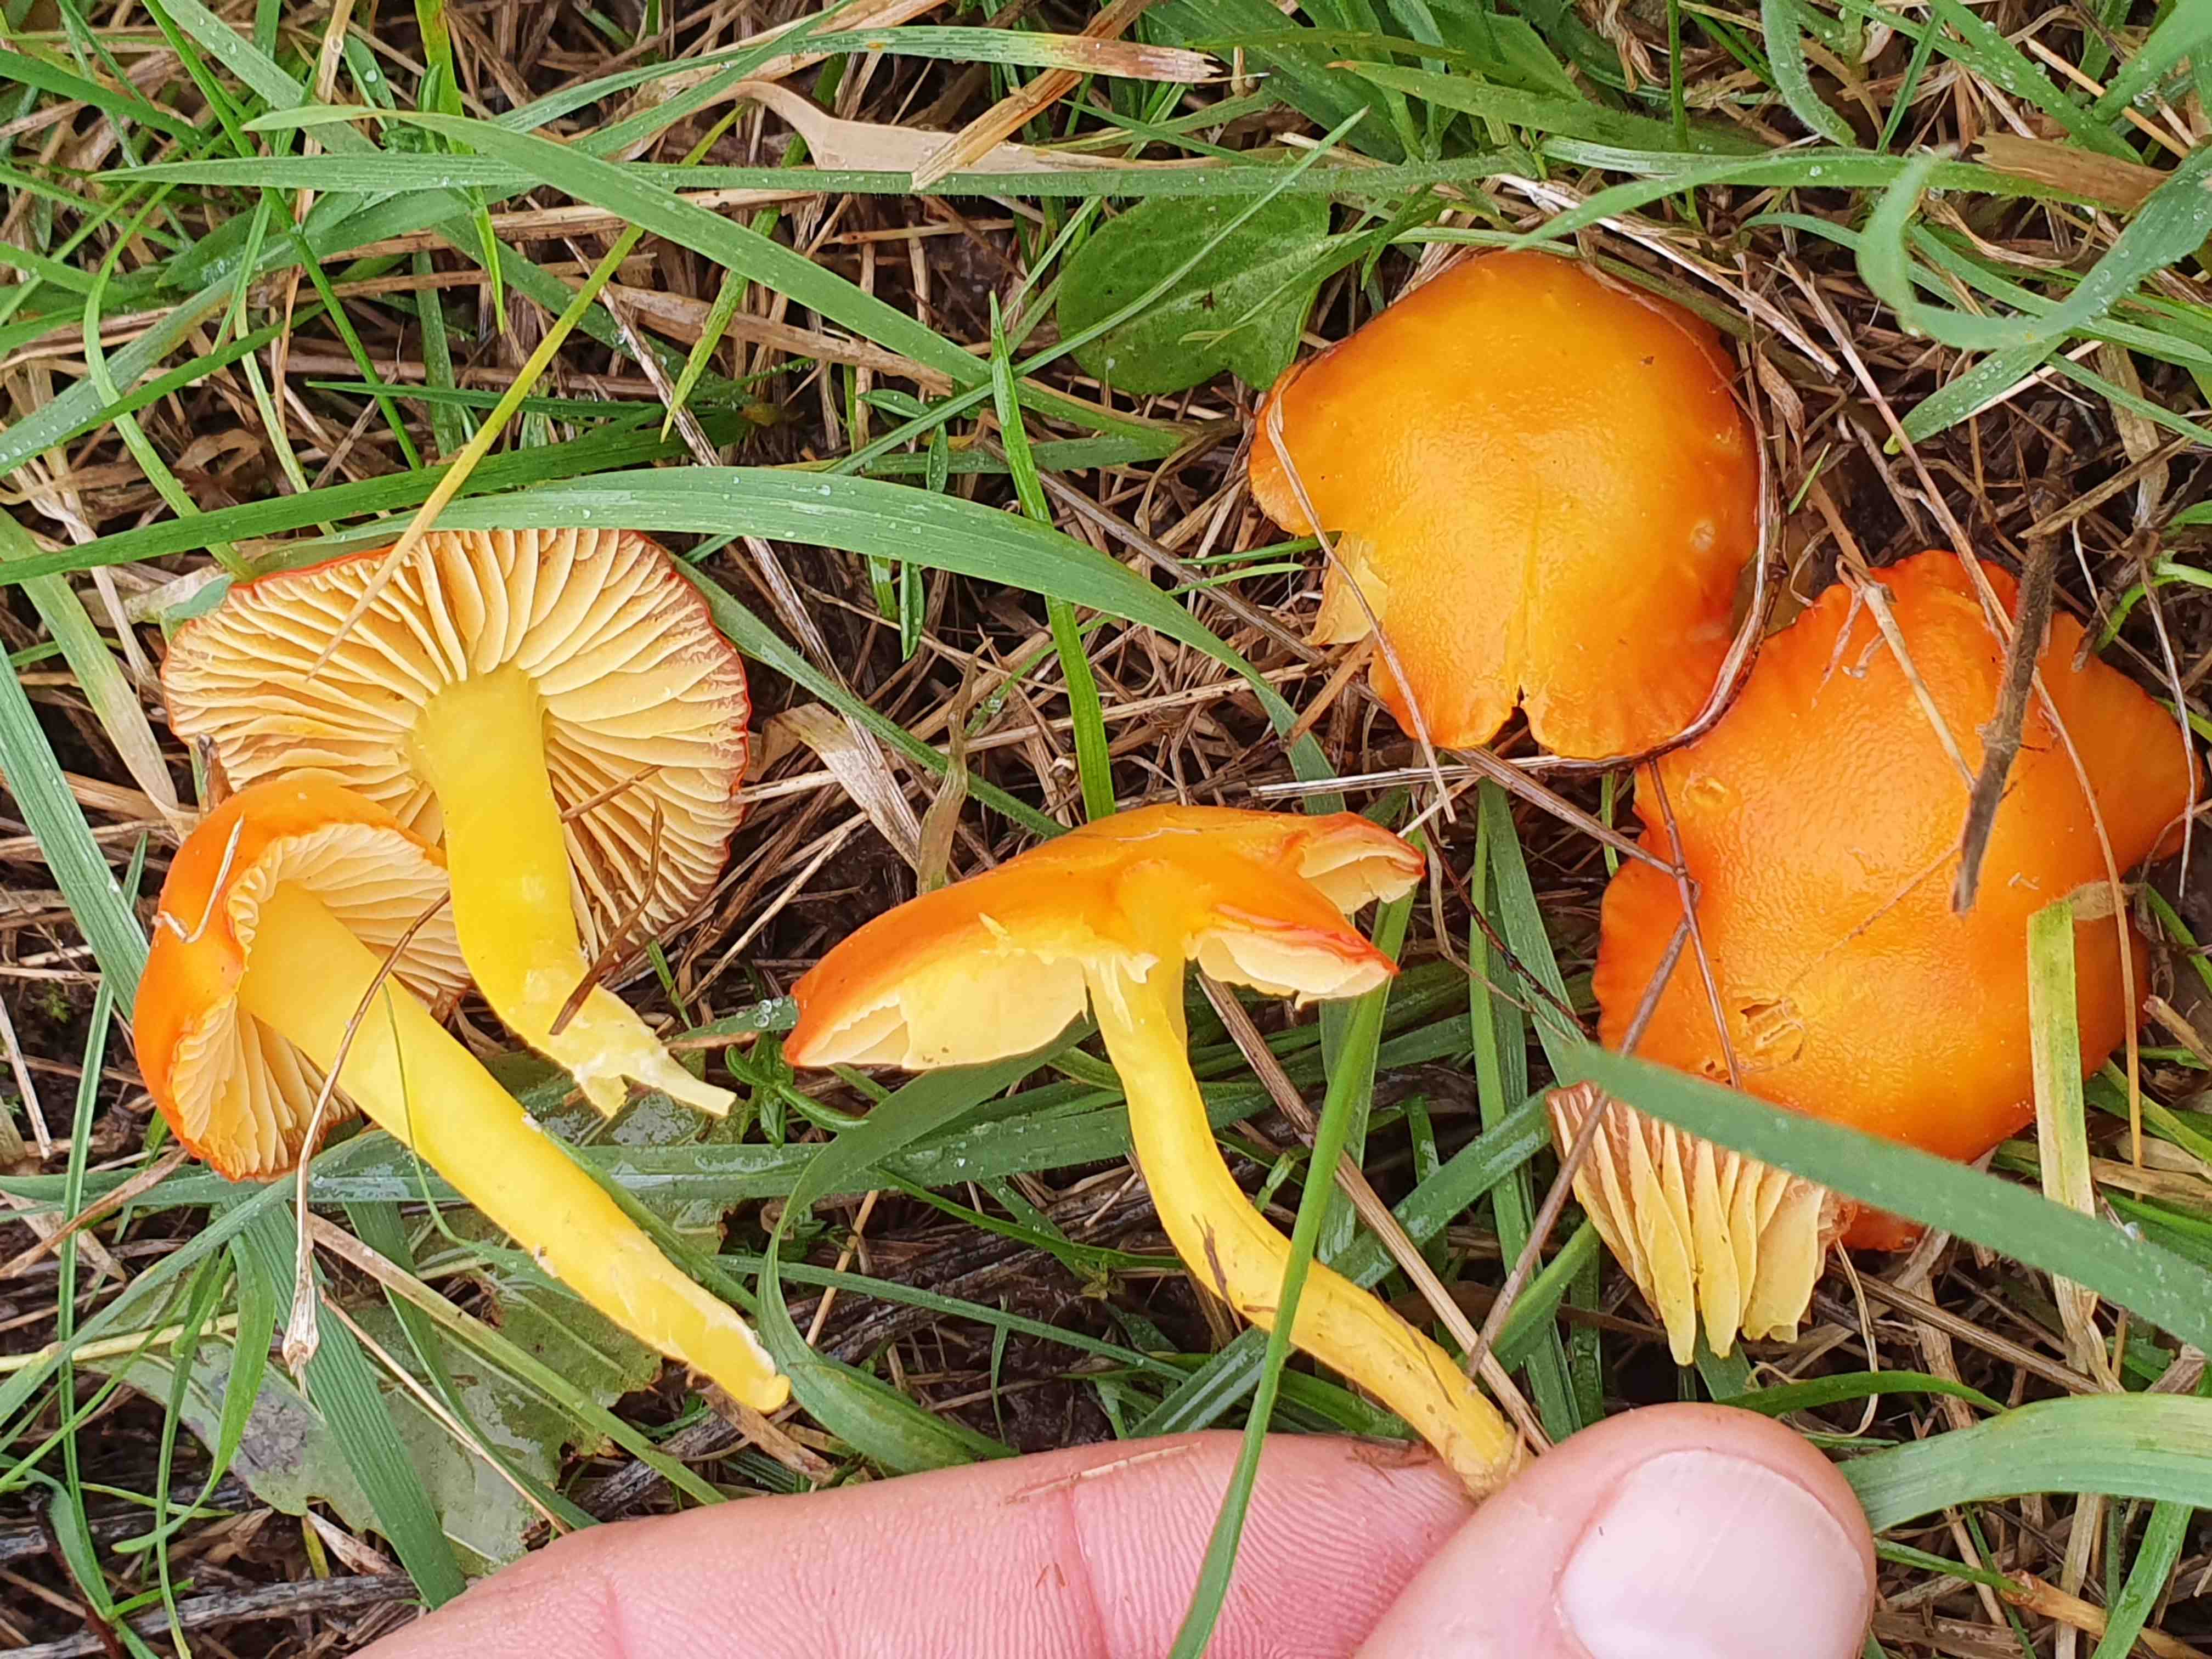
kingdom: Fungi
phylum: Basidiomycota
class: Agaricomycetes
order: Agaricales
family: Hygrophoraceae
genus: Hygrocybe
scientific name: Hygrocybe miniata
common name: mønje-vokshat
